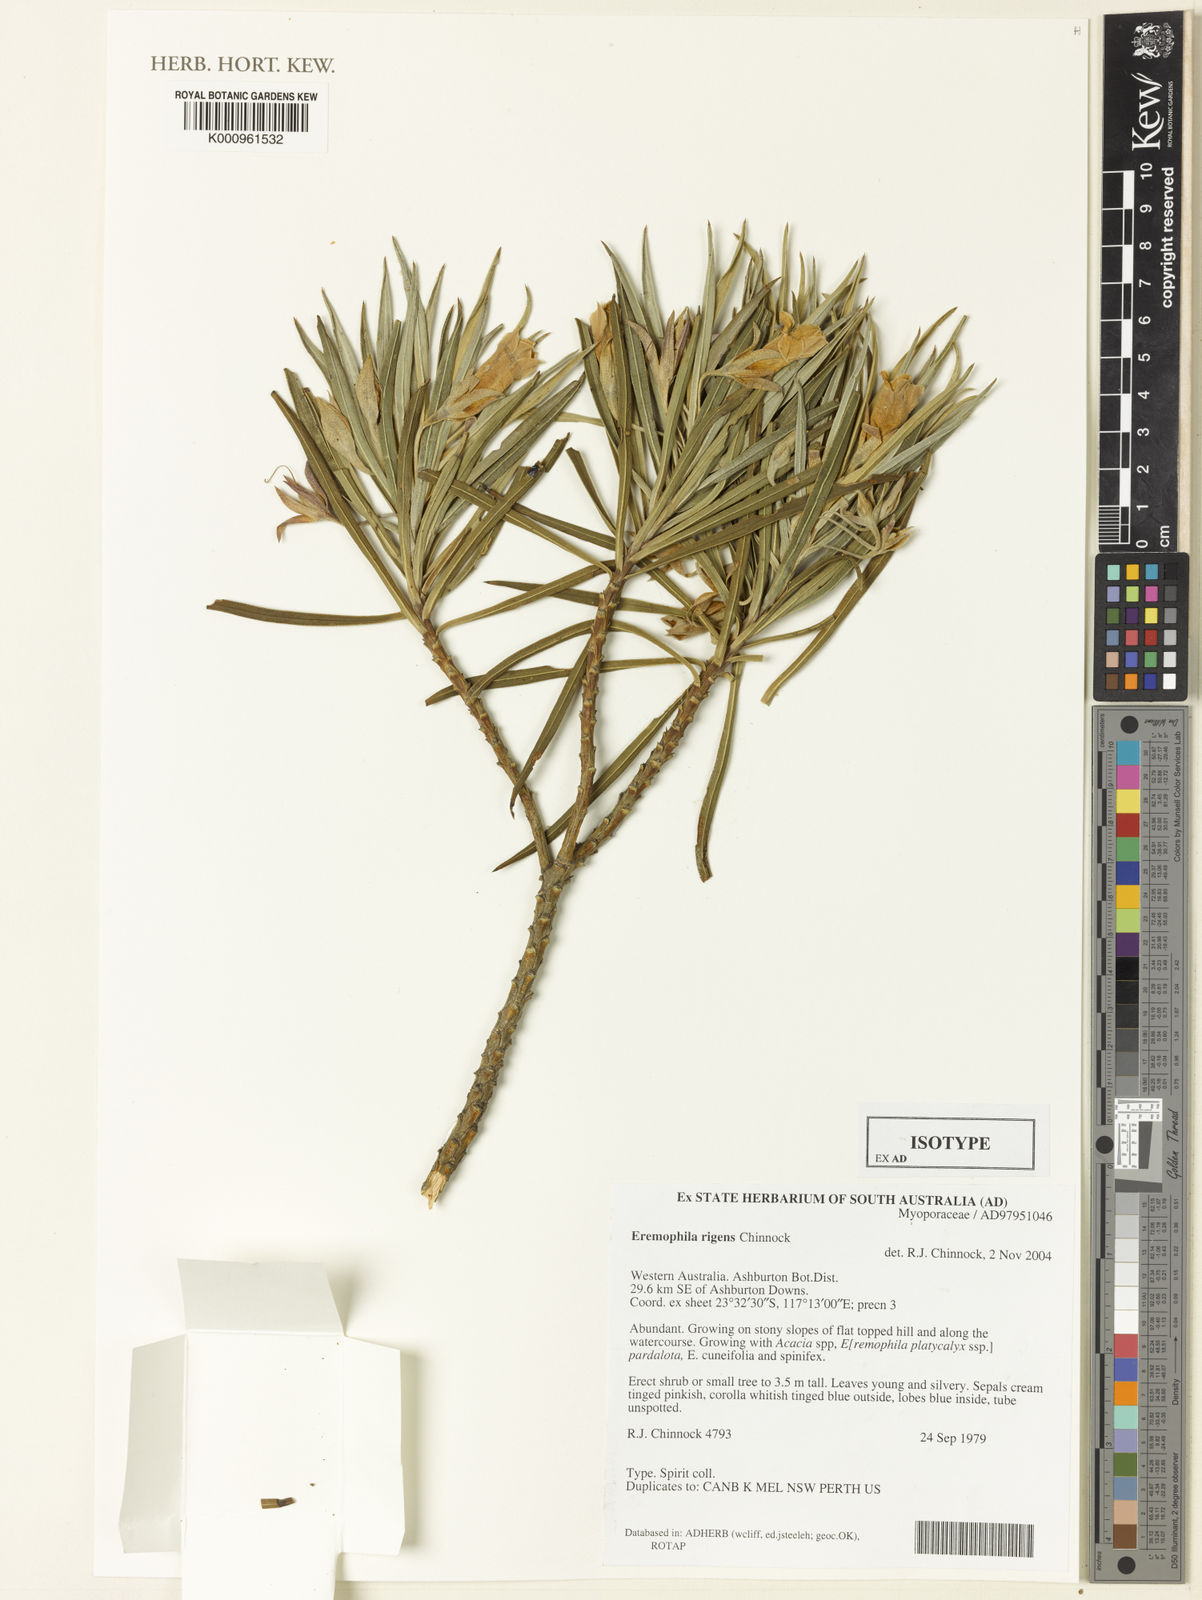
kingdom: Plantae
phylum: Tracheophyta
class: Magnoliopsida
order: Lamiales
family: Scrophulariaceae
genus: Eremophila
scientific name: Eremophila rigens
